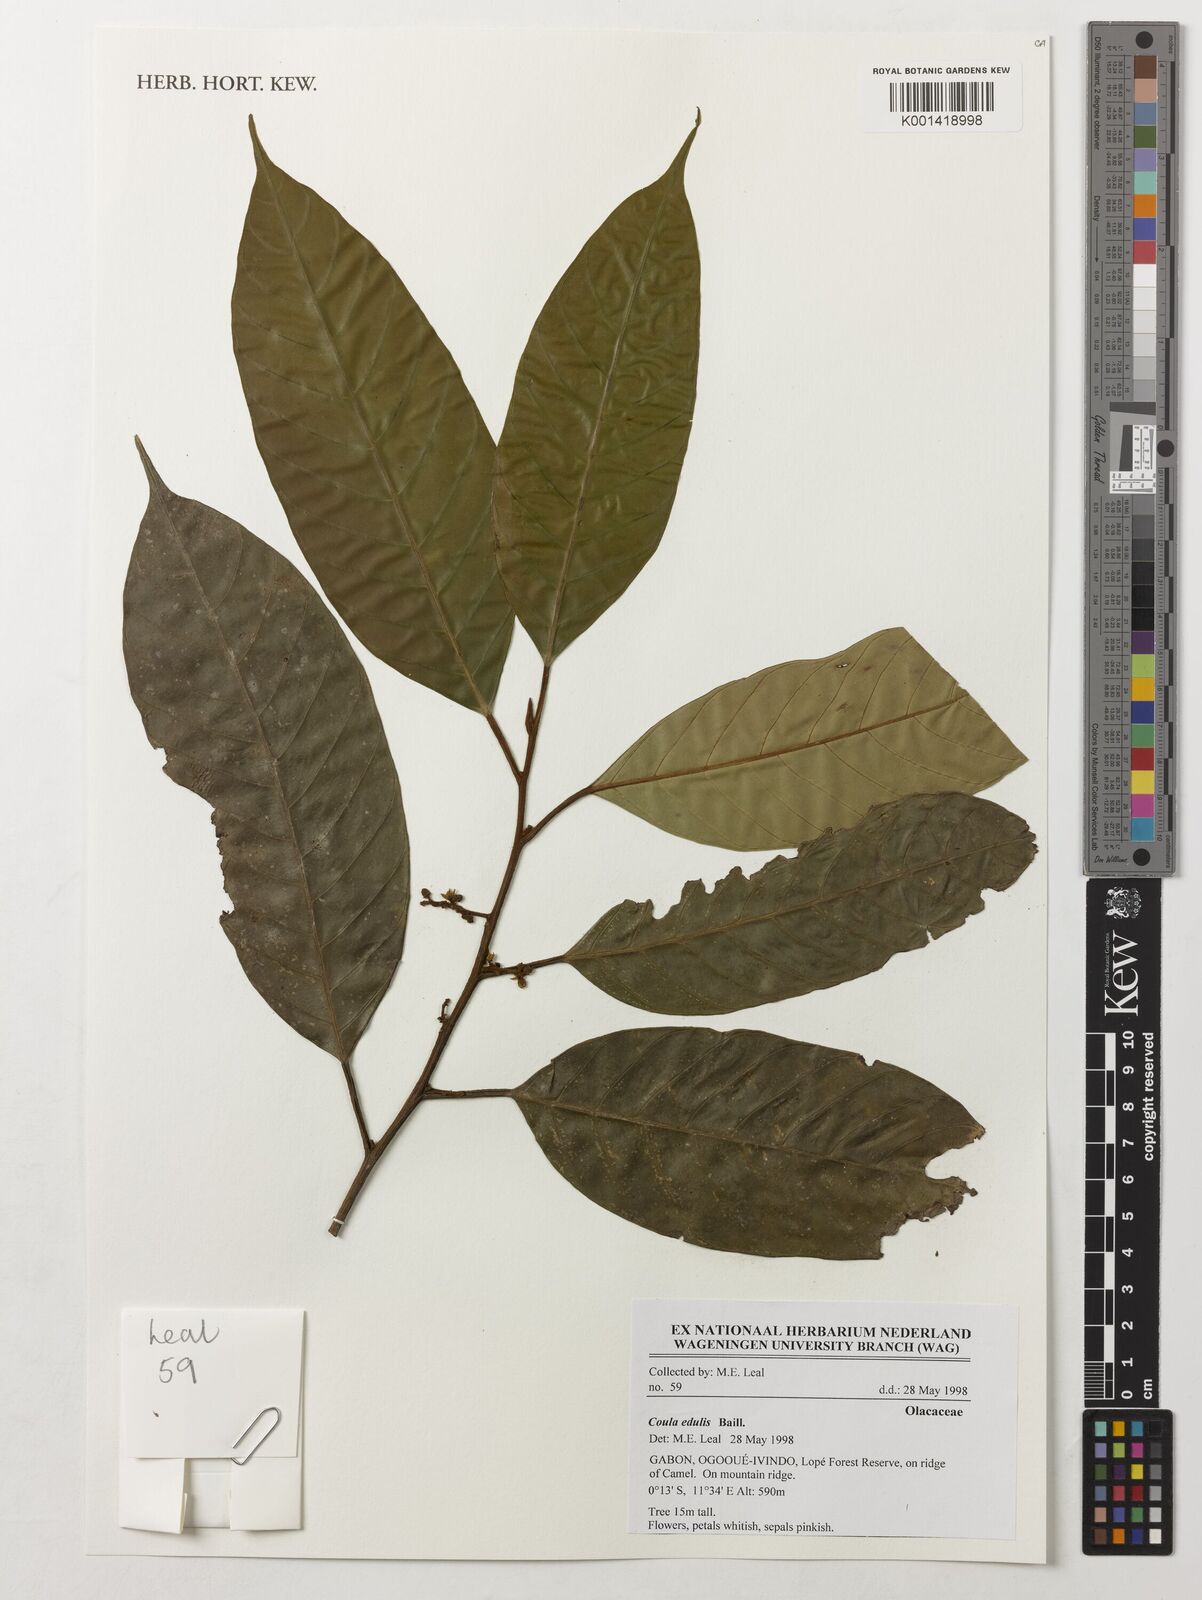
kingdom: Plantae
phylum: Tracheophyta
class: Magnoliopsida
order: Santalales
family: Coulaceae
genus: Coula
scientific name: Coula edulis
